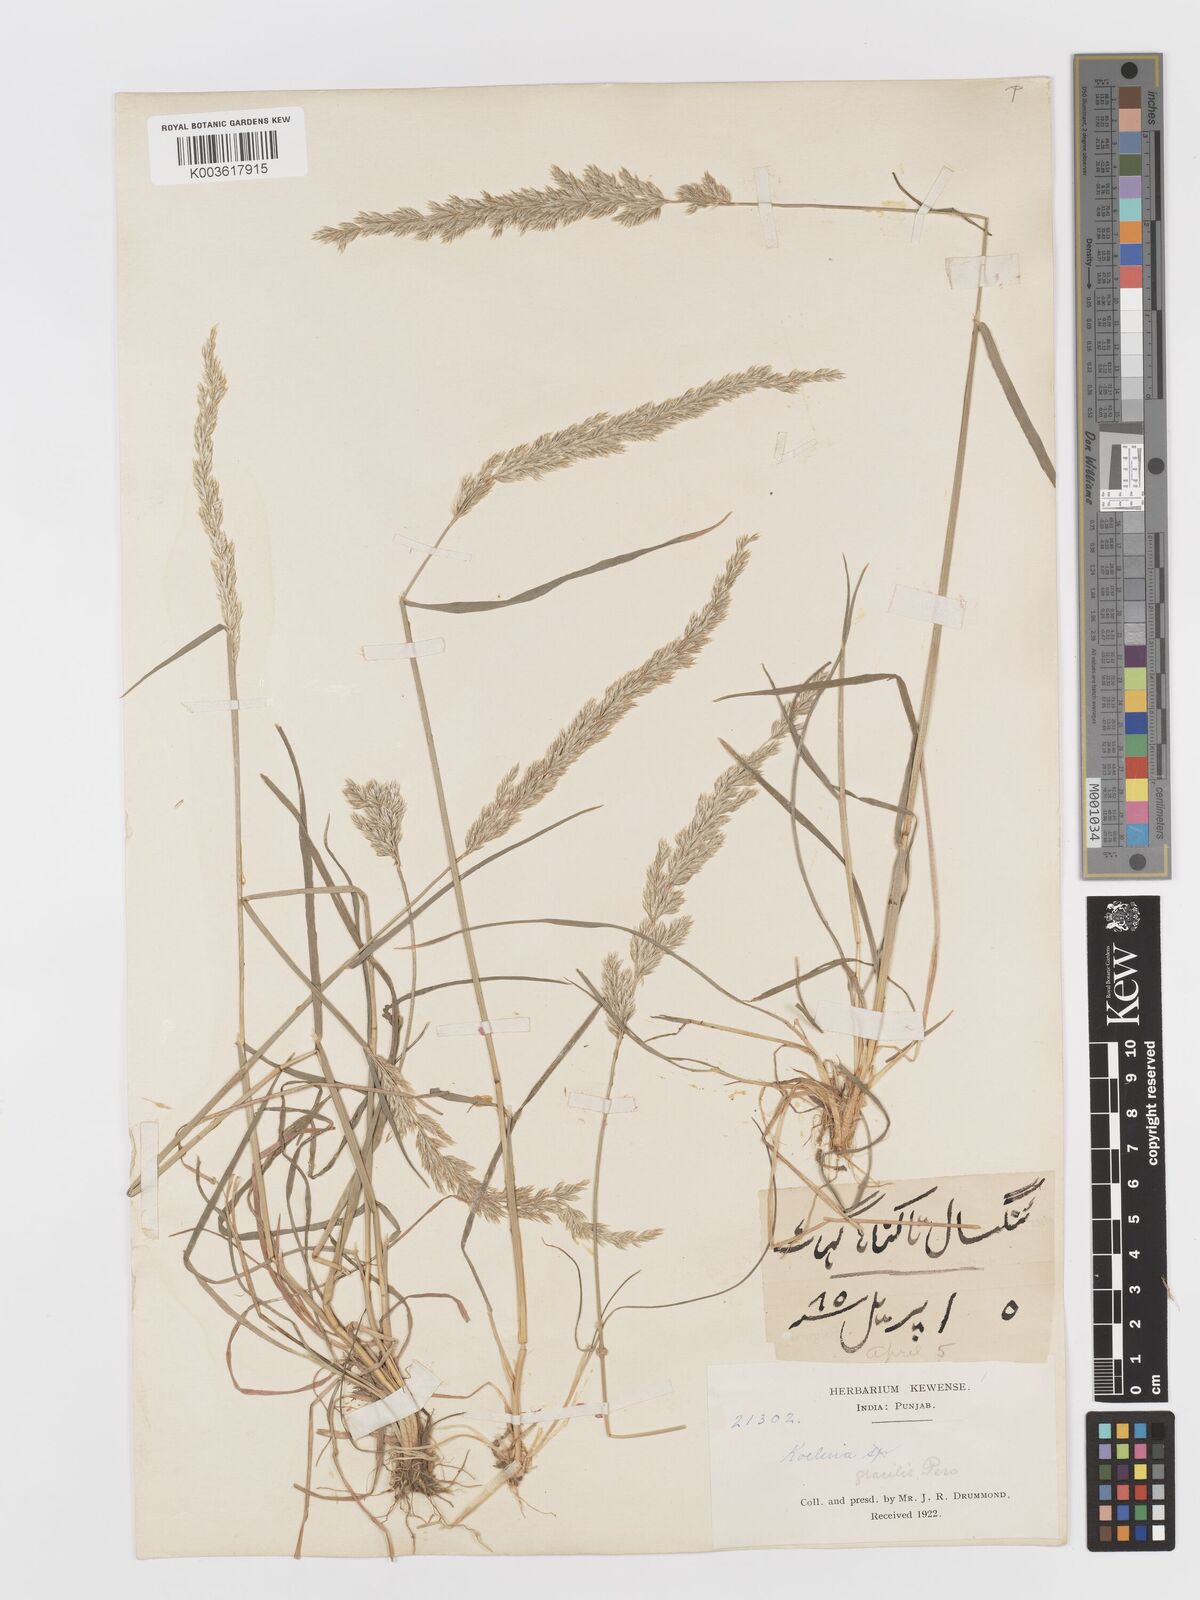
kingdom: Plantae
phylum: Tracheophyta
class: Liliopsida
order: Poales
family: Poaceae
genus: Koeleria
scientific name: Koeleria
